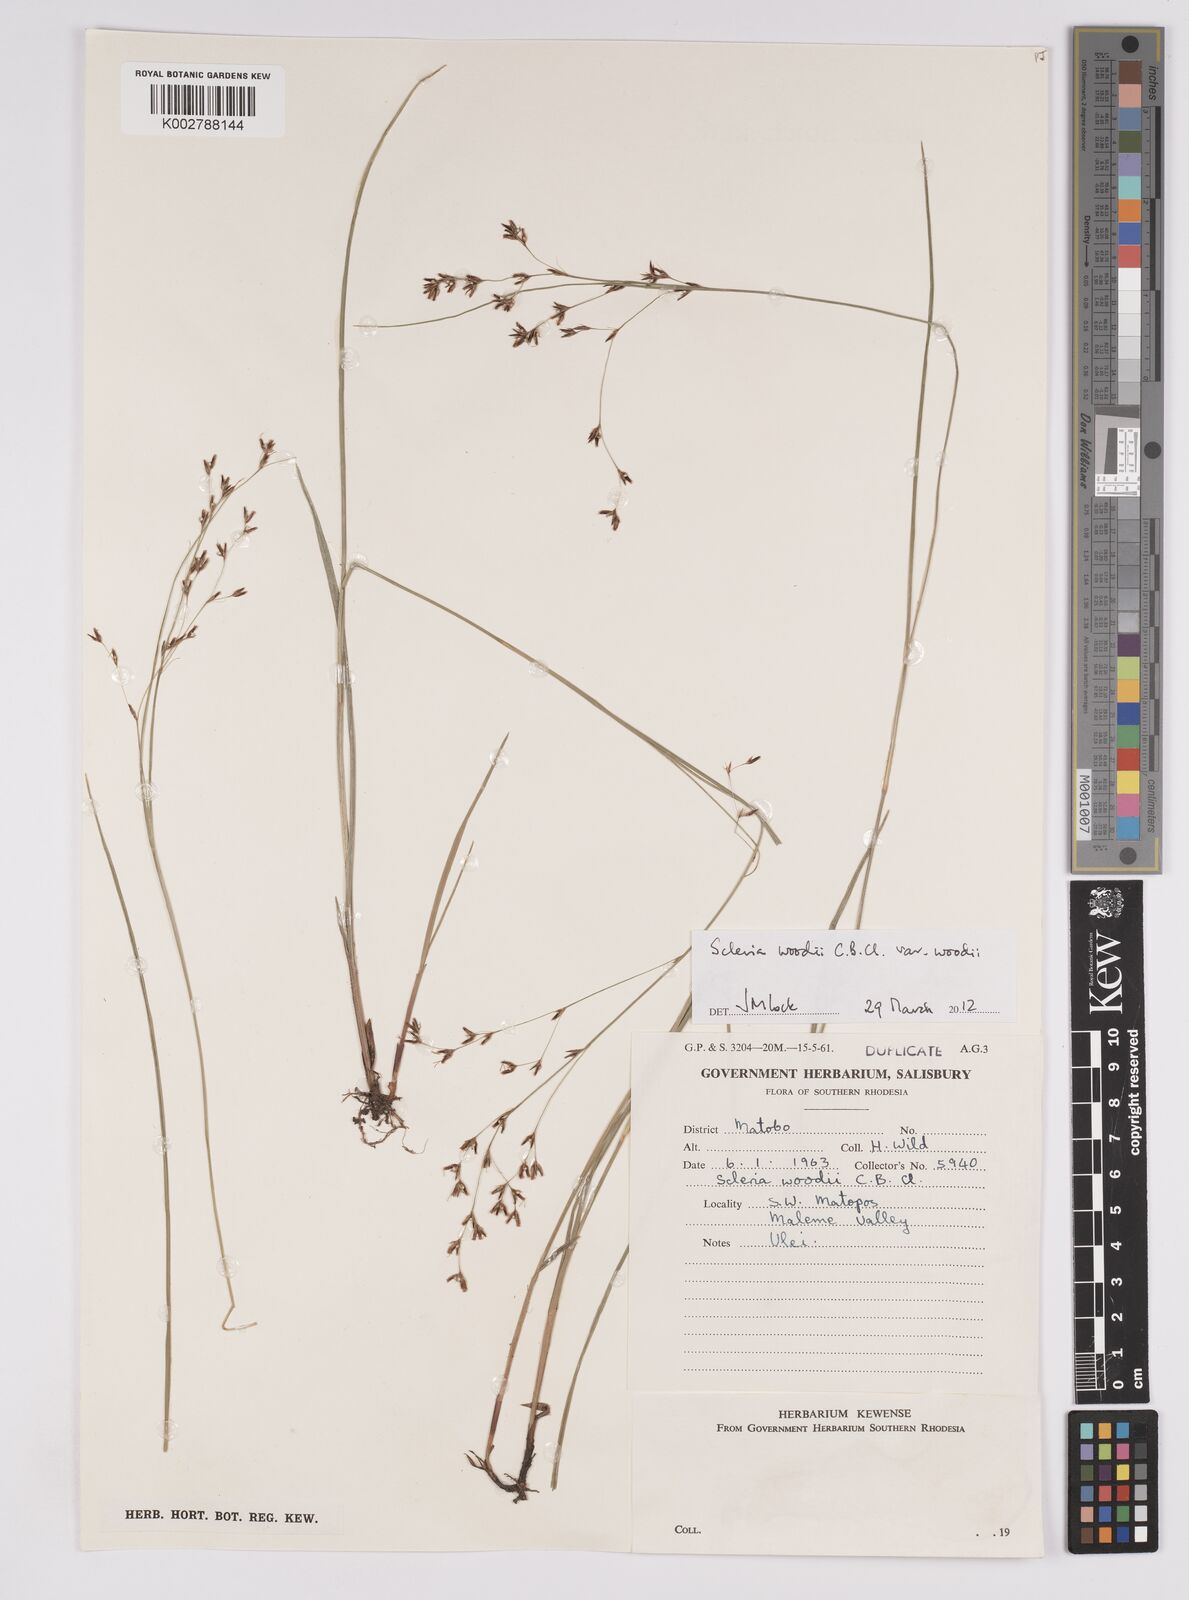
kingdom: Plantae
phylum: Tracheophyta
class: Liliopsida
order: Poales
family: Cyperaceae
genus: Scleria
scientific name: Scleria woodii
